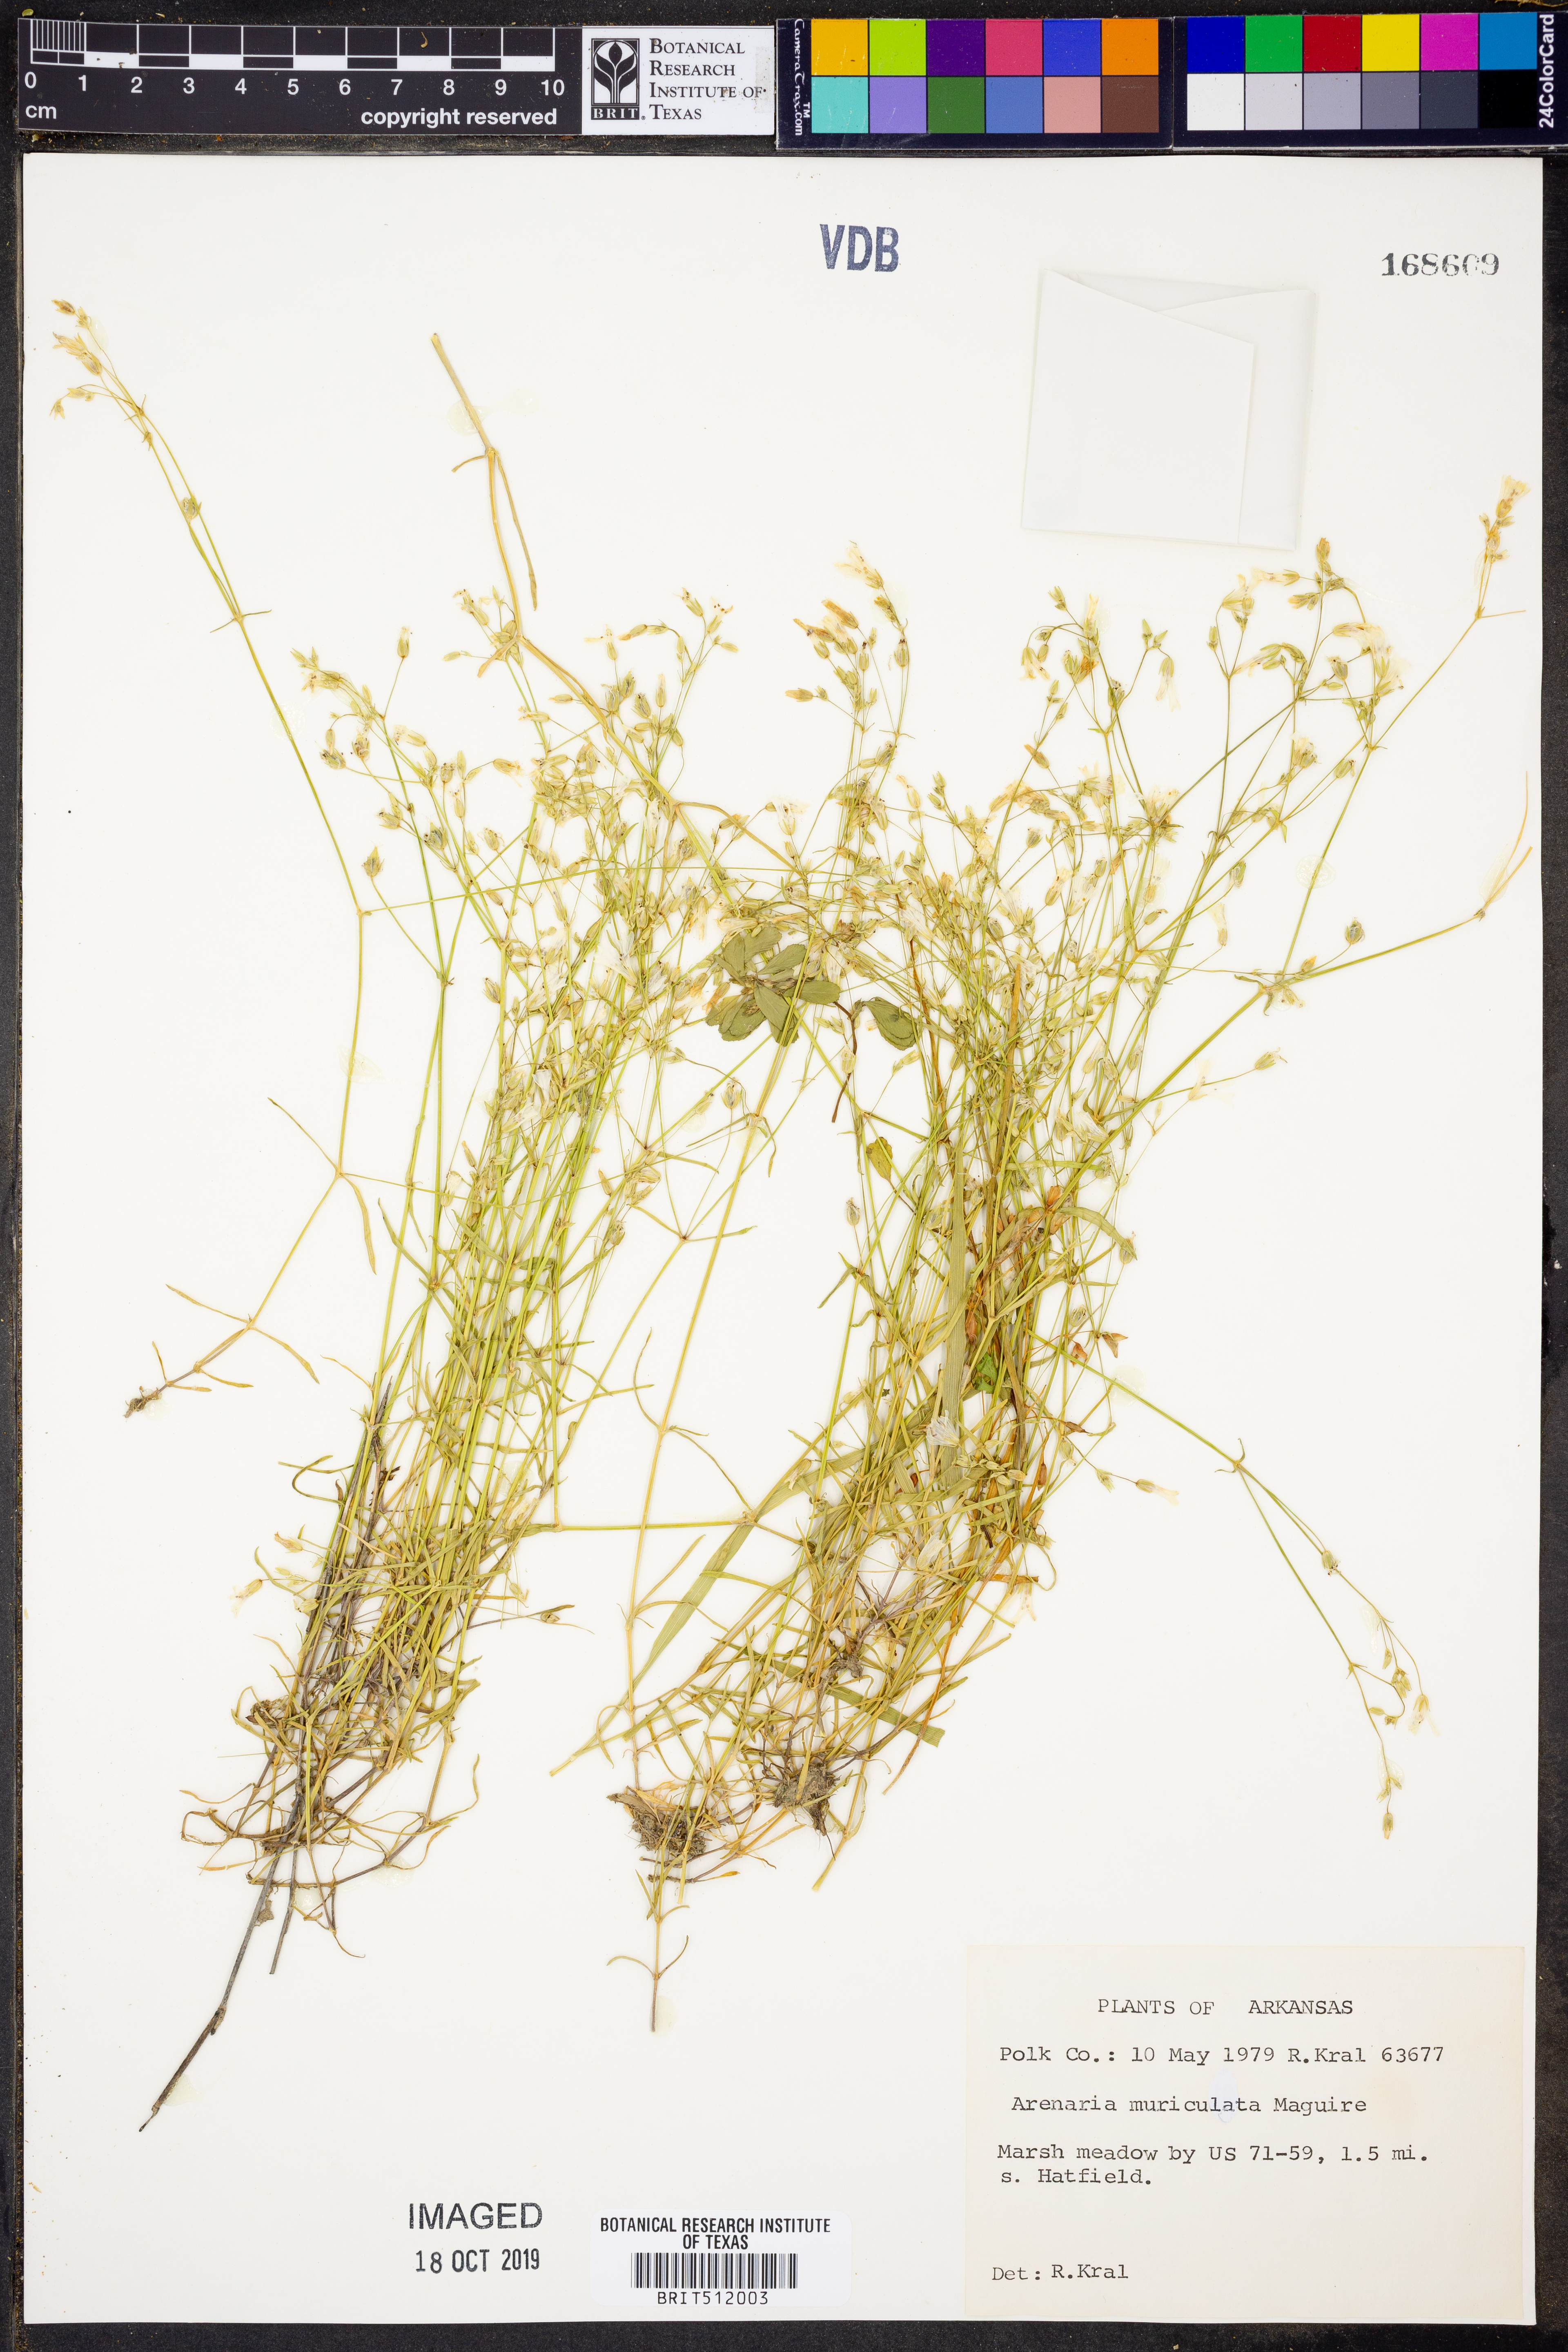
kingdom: Plantae
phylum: Tracheophyta
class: Magnoliopsida
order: Caryophyllales
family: Caryophyllaceae
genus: Mononeuria
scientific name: Mononeuria muscorum
